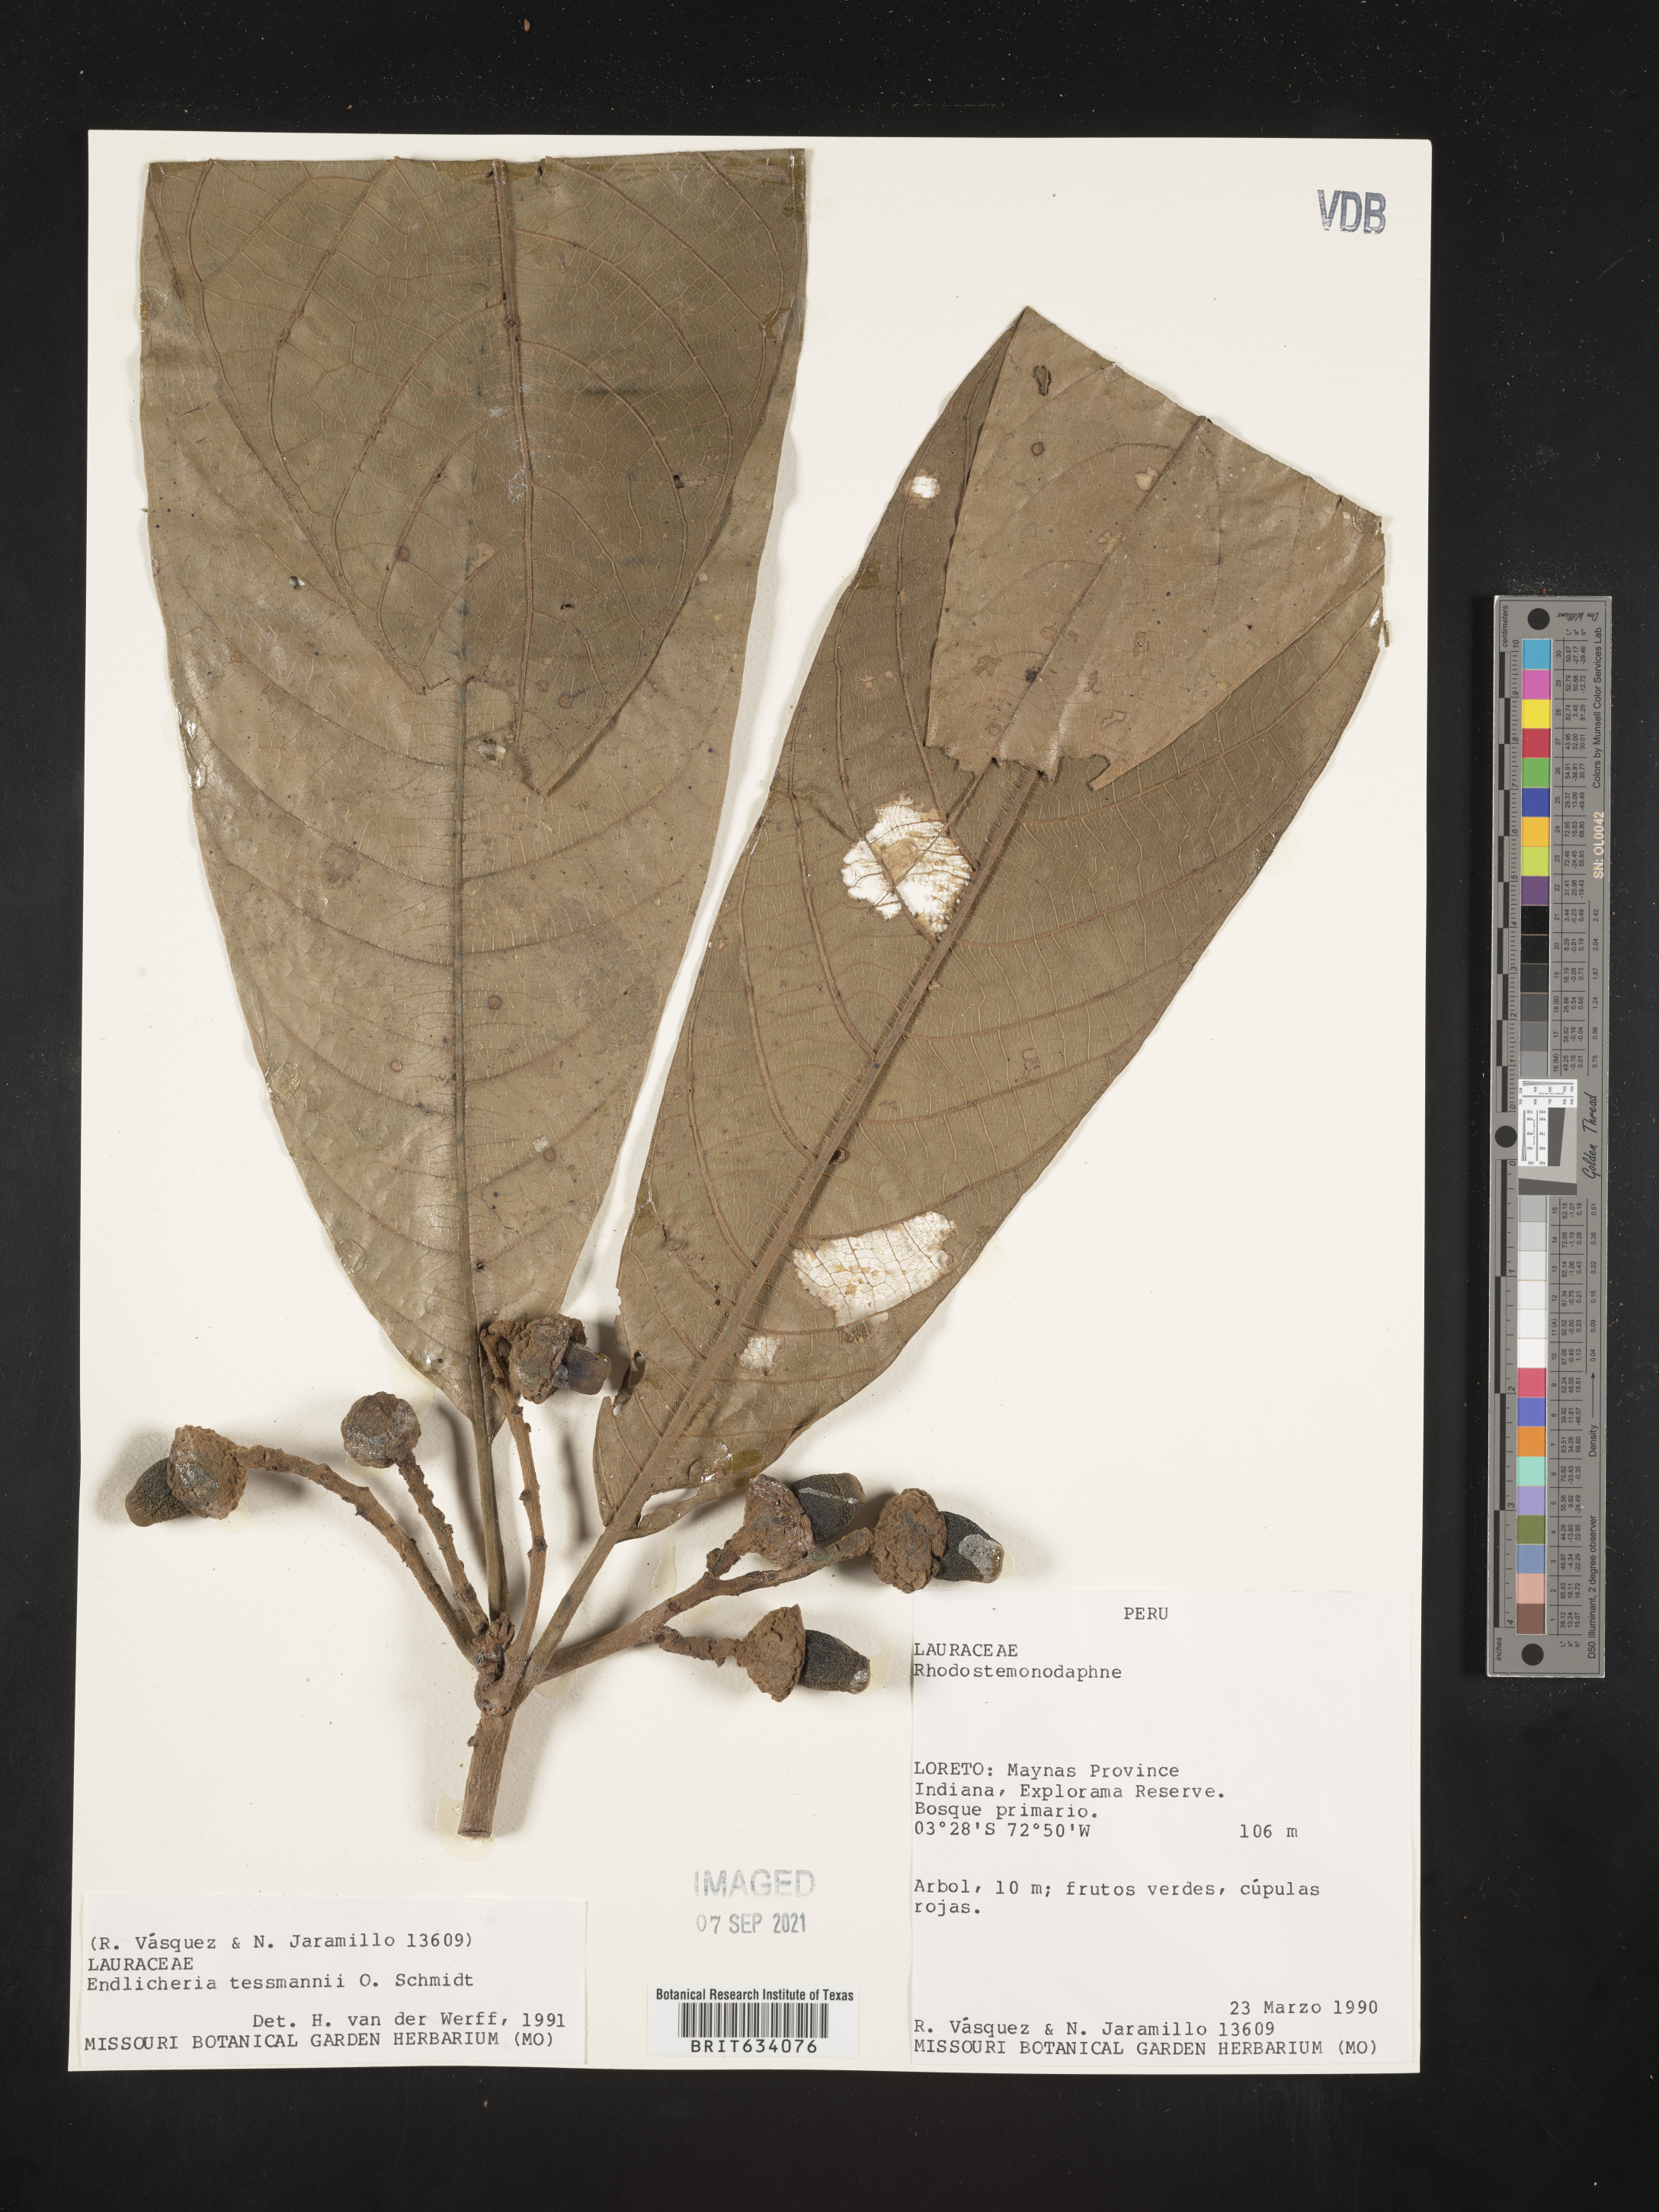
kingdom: Plantae
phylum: Tracheophyta
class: Magnoliopsida
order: Laurales
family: Lauraceae
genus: Endlicheria
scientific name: Endlicheria
